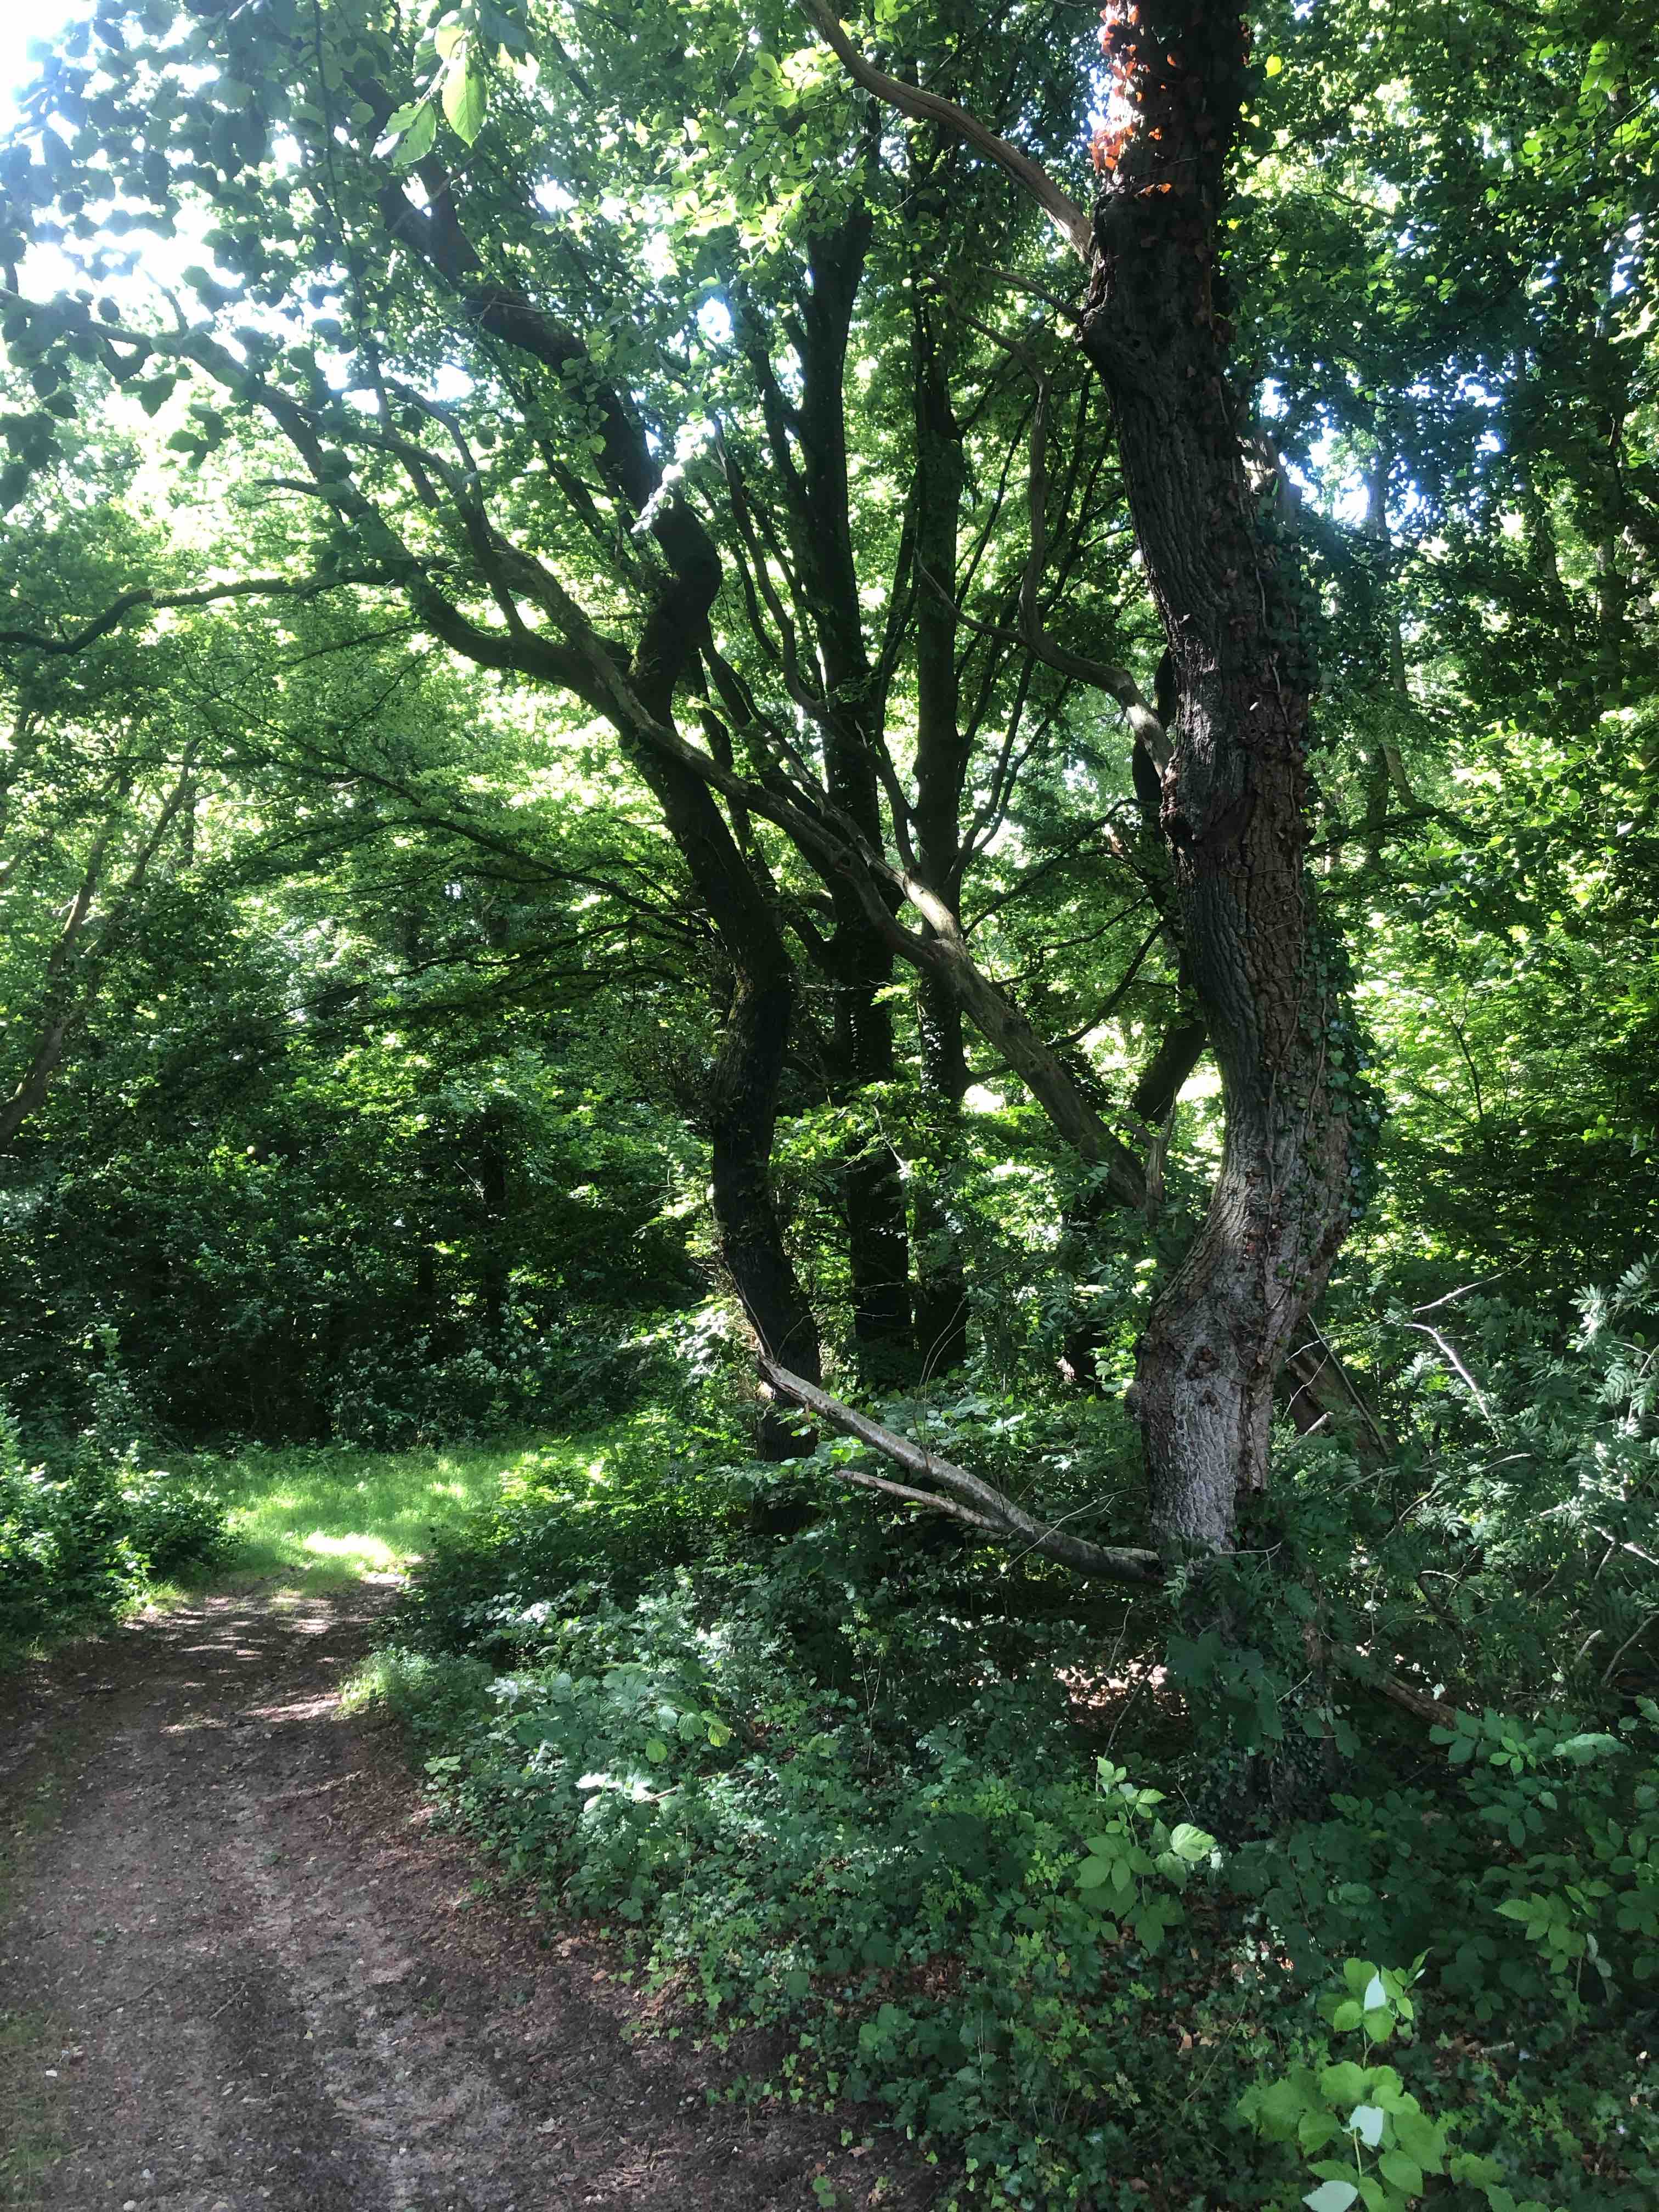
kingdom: Fungi
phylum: Basidiomycota
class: Agaricomycetes
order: Boletales
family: Boletaceae
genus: Xerocomellus
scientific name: Xerocomellus chrysenteron
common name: rødsprukken rørhat
